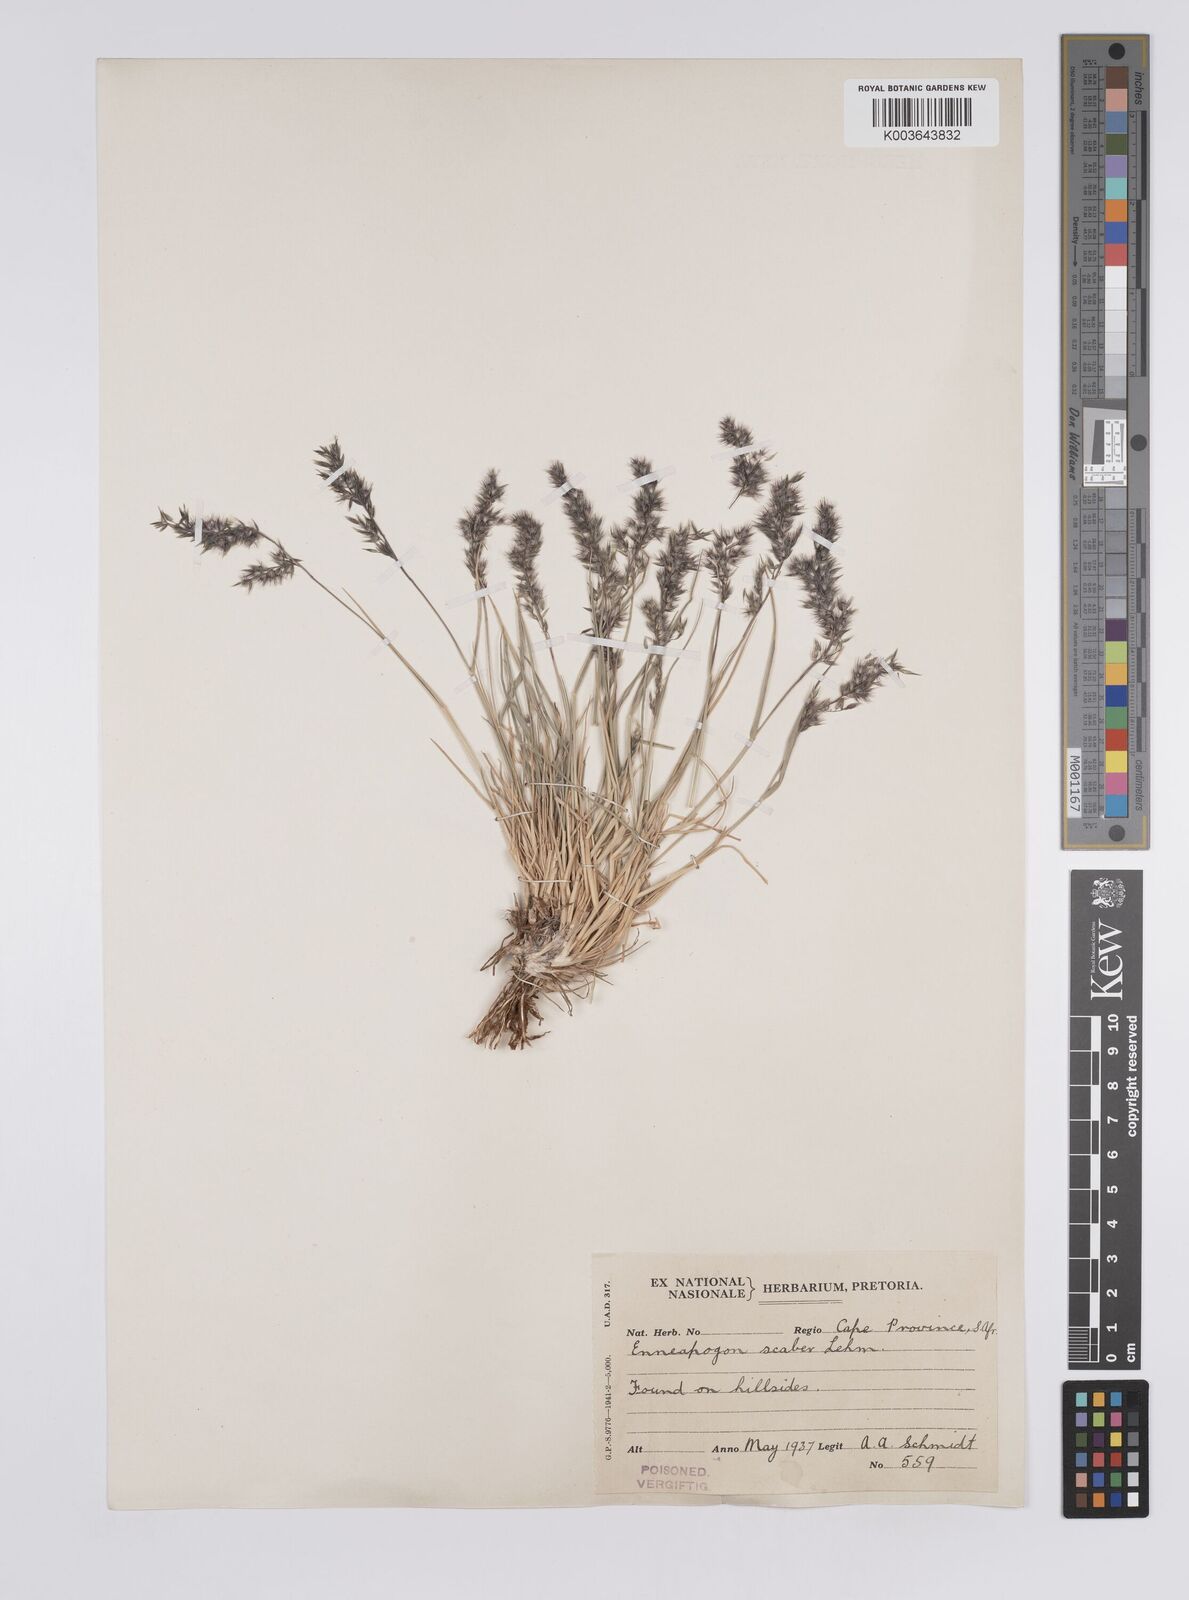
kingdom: Plantae
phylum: Tracheophyta
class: Liliopsida
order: Poales
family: Poaceae
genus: Enneapogon
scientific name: Enneapogon scaber
